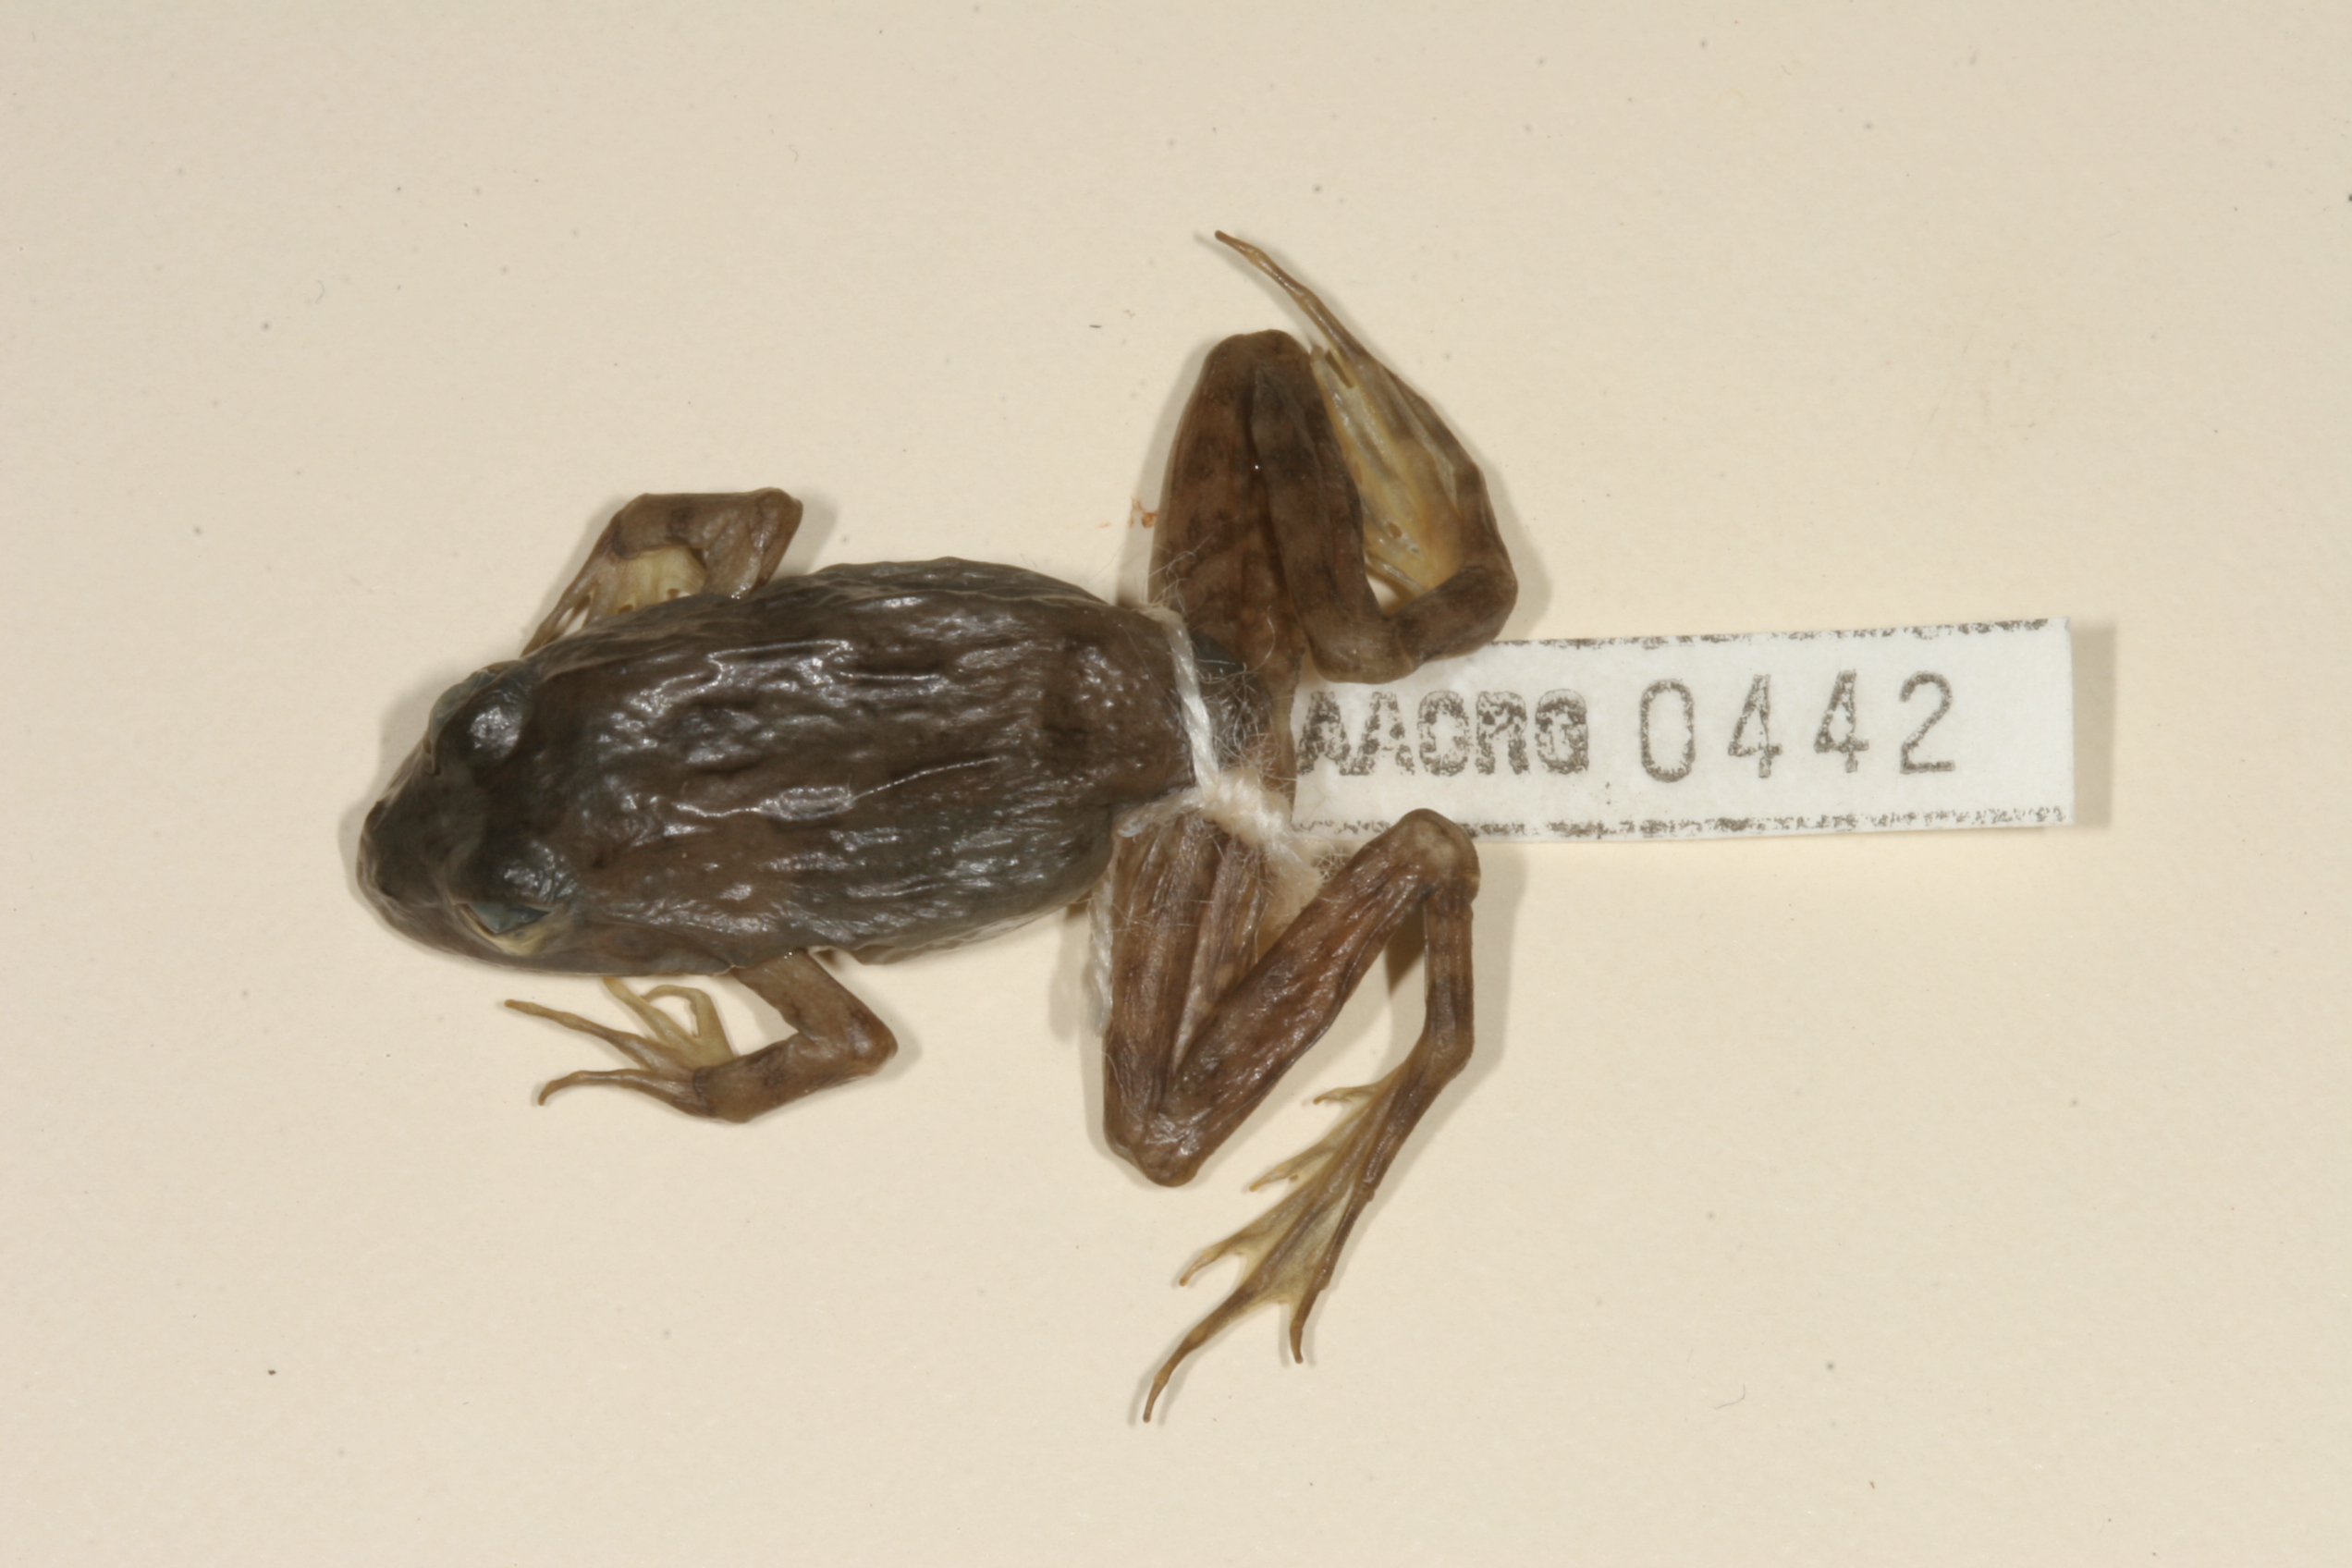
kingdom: Animalia
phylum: Chordata
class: Amphibia
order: Anura
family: Pyxicephalidae
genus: Amietia
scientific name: Amietia fuscigula
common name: Cape rana
